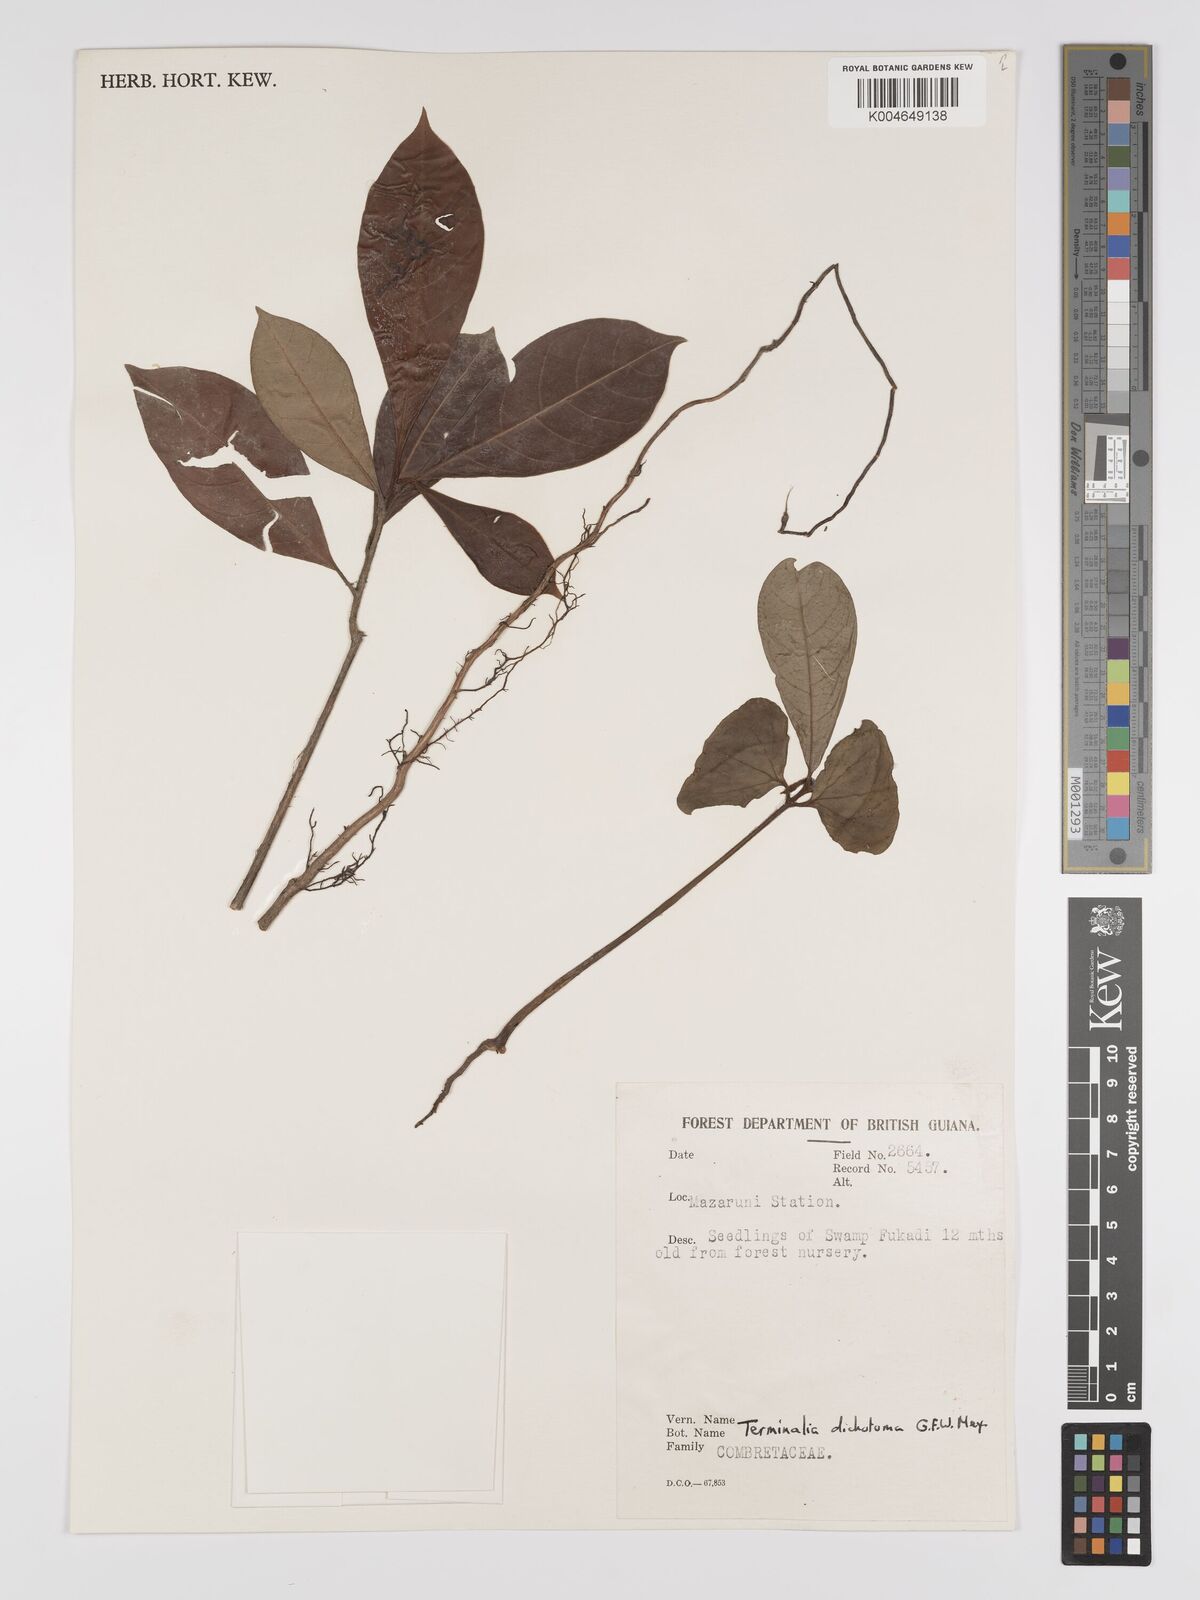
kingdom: Plantae
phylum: Tracheophyta
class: Magnoliopsida
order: Myrtales
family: Combretaceae
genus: Terminalia
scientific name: Terminalia dichotoma
